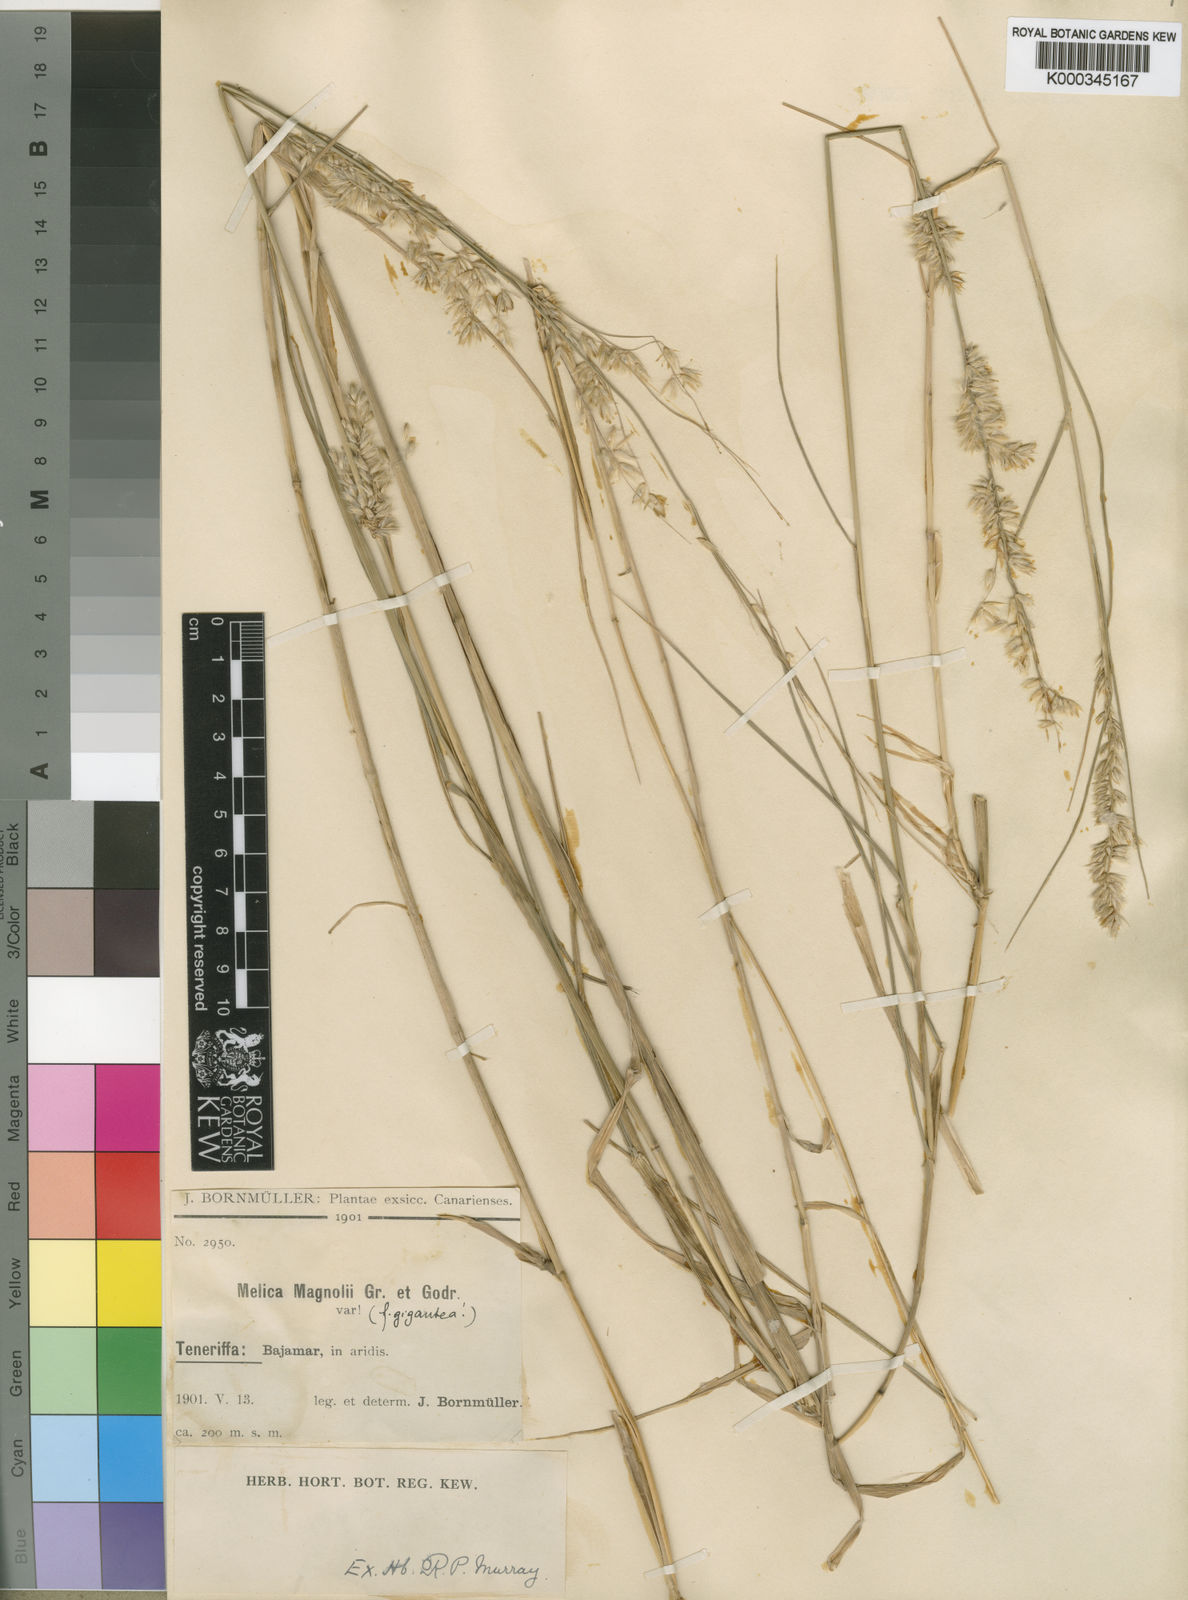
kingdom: Plantae
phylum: Tracheophyta
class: Liliopsida
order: Poales
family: Poaceae
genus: Melica
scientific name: Melica canariensis
